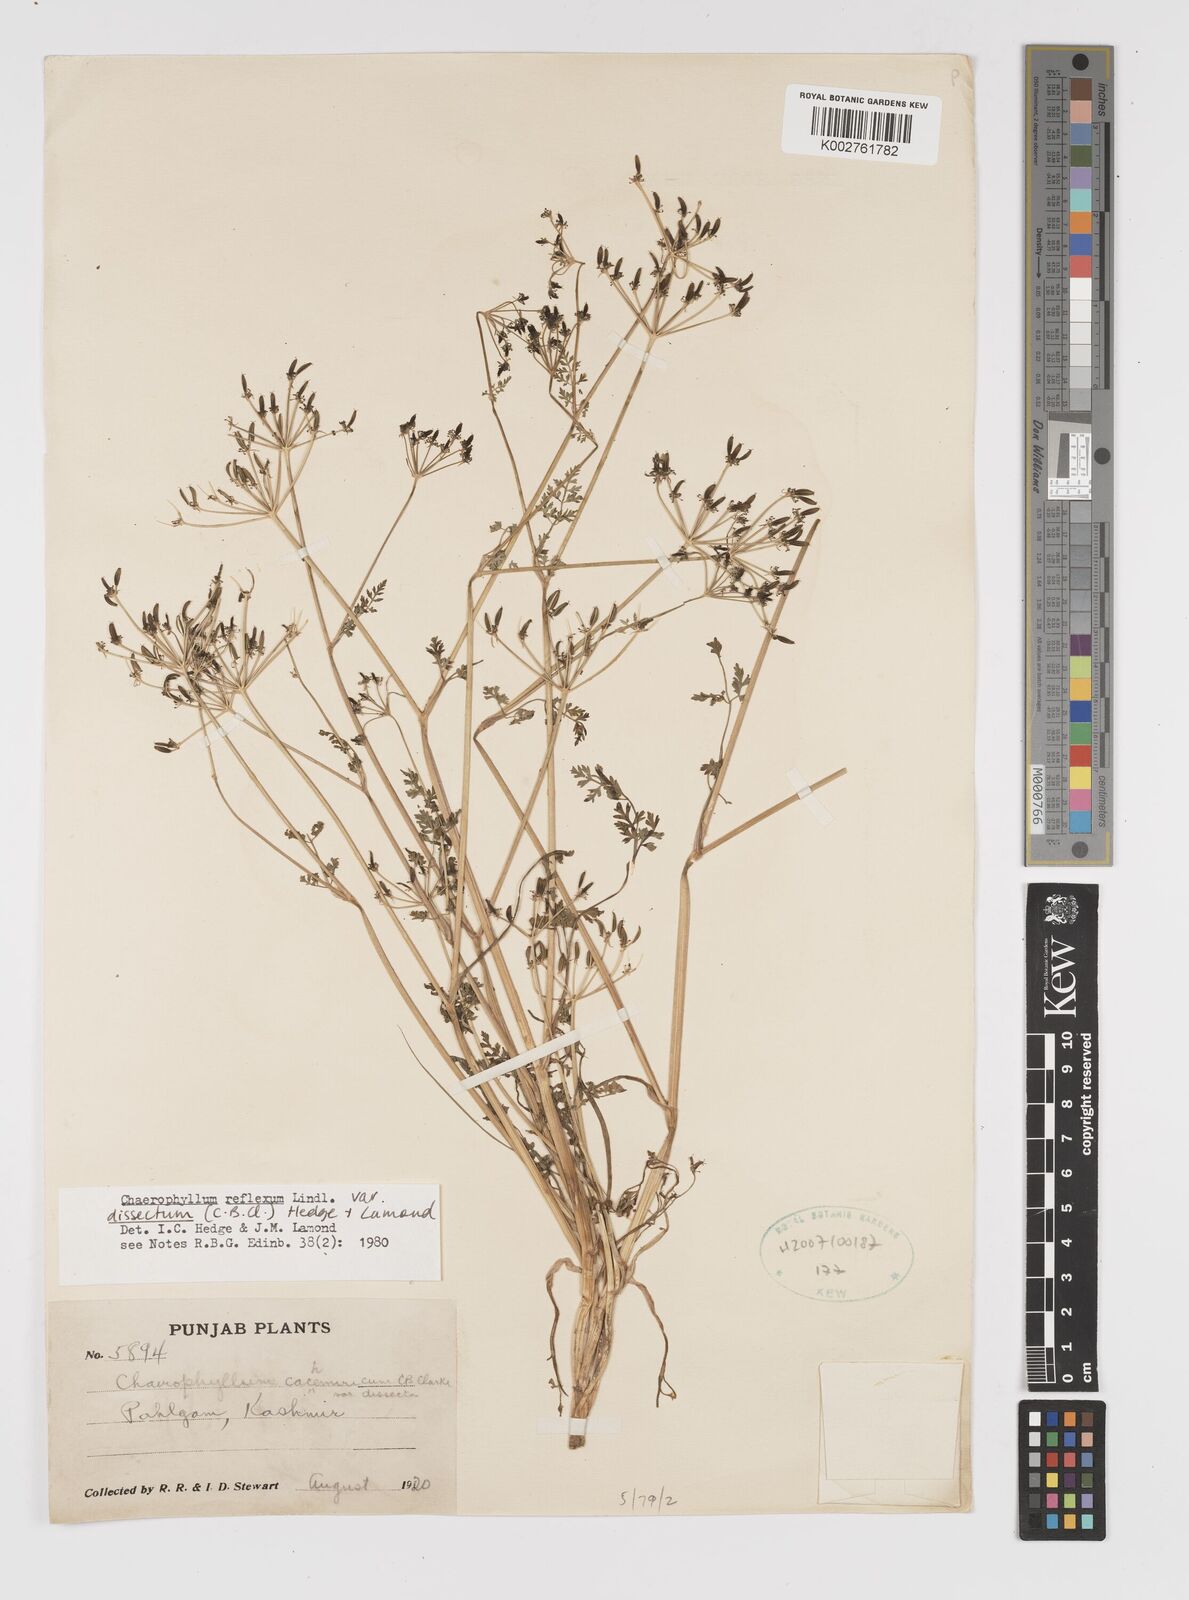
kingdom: Plantae
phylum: Tracheophyta
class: Magnoliopsida
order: Apiales
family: Apiaceae
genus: Chaerophyllum
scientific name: Chaerophyllum reflexum
